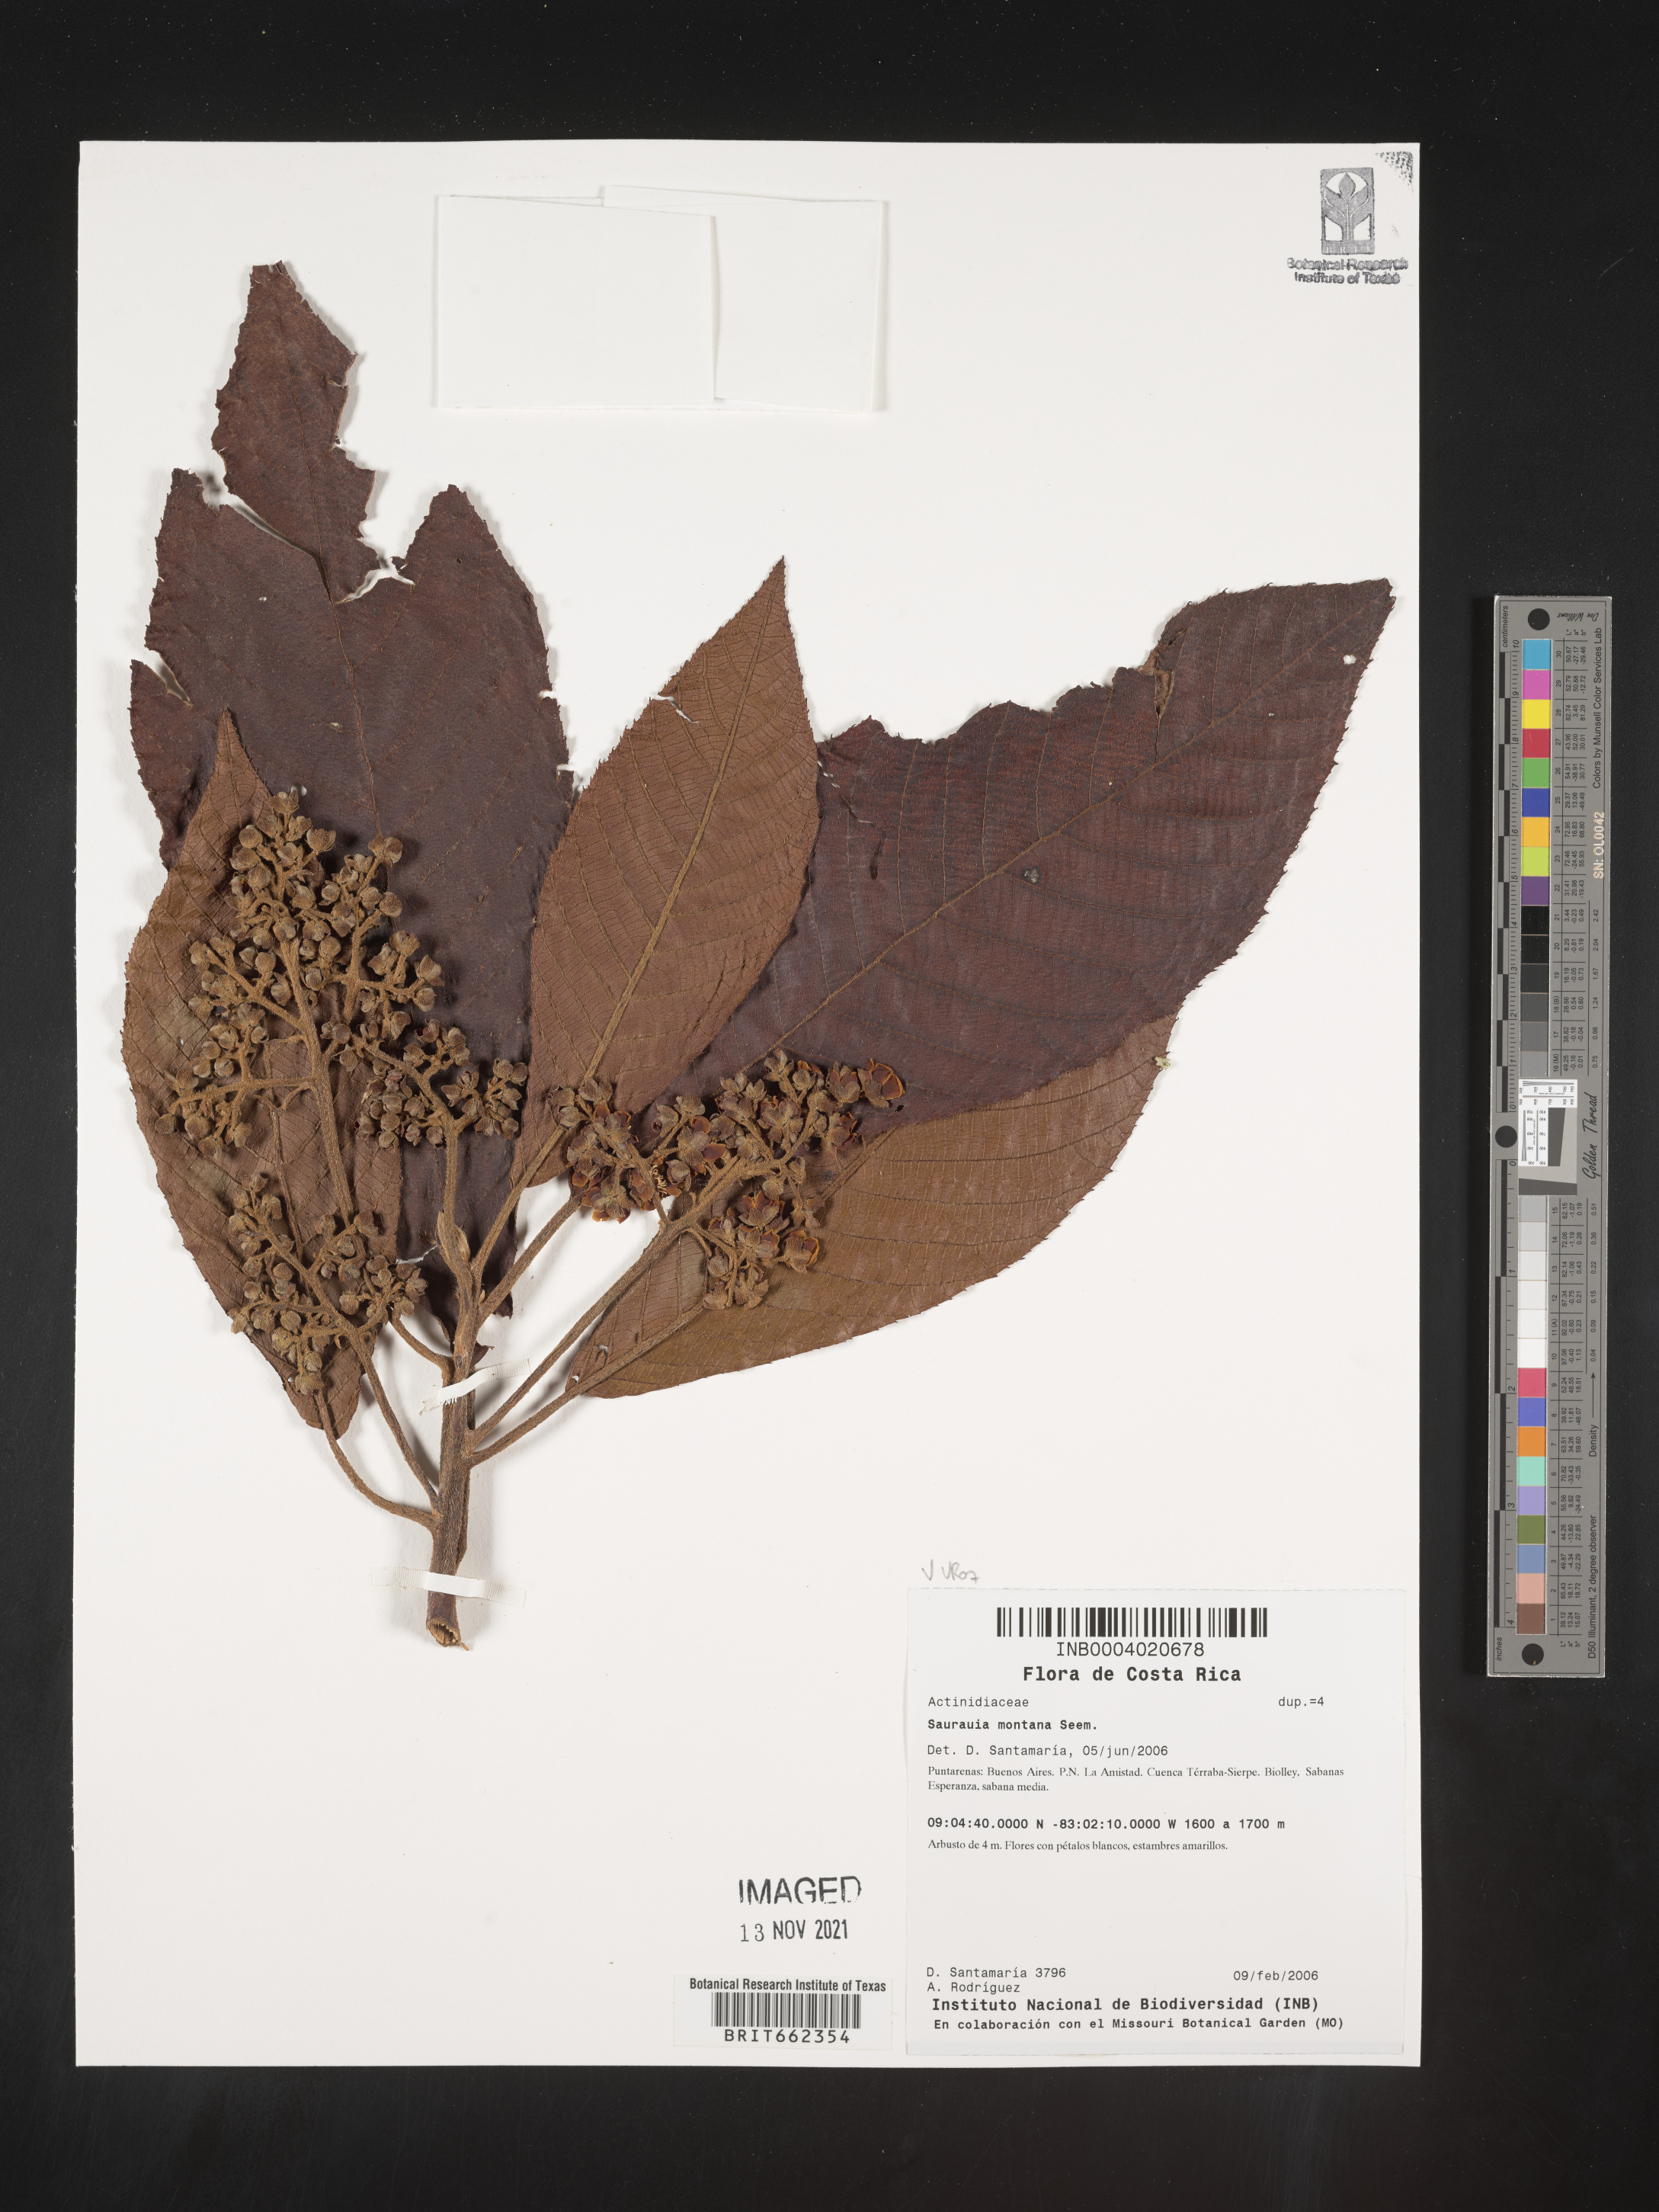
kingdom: Plantae
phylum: Tracheophyta
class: Magnoliopsida
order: Ericales
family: Actinidiaceae
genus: Saurauia
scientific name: Saurauia
